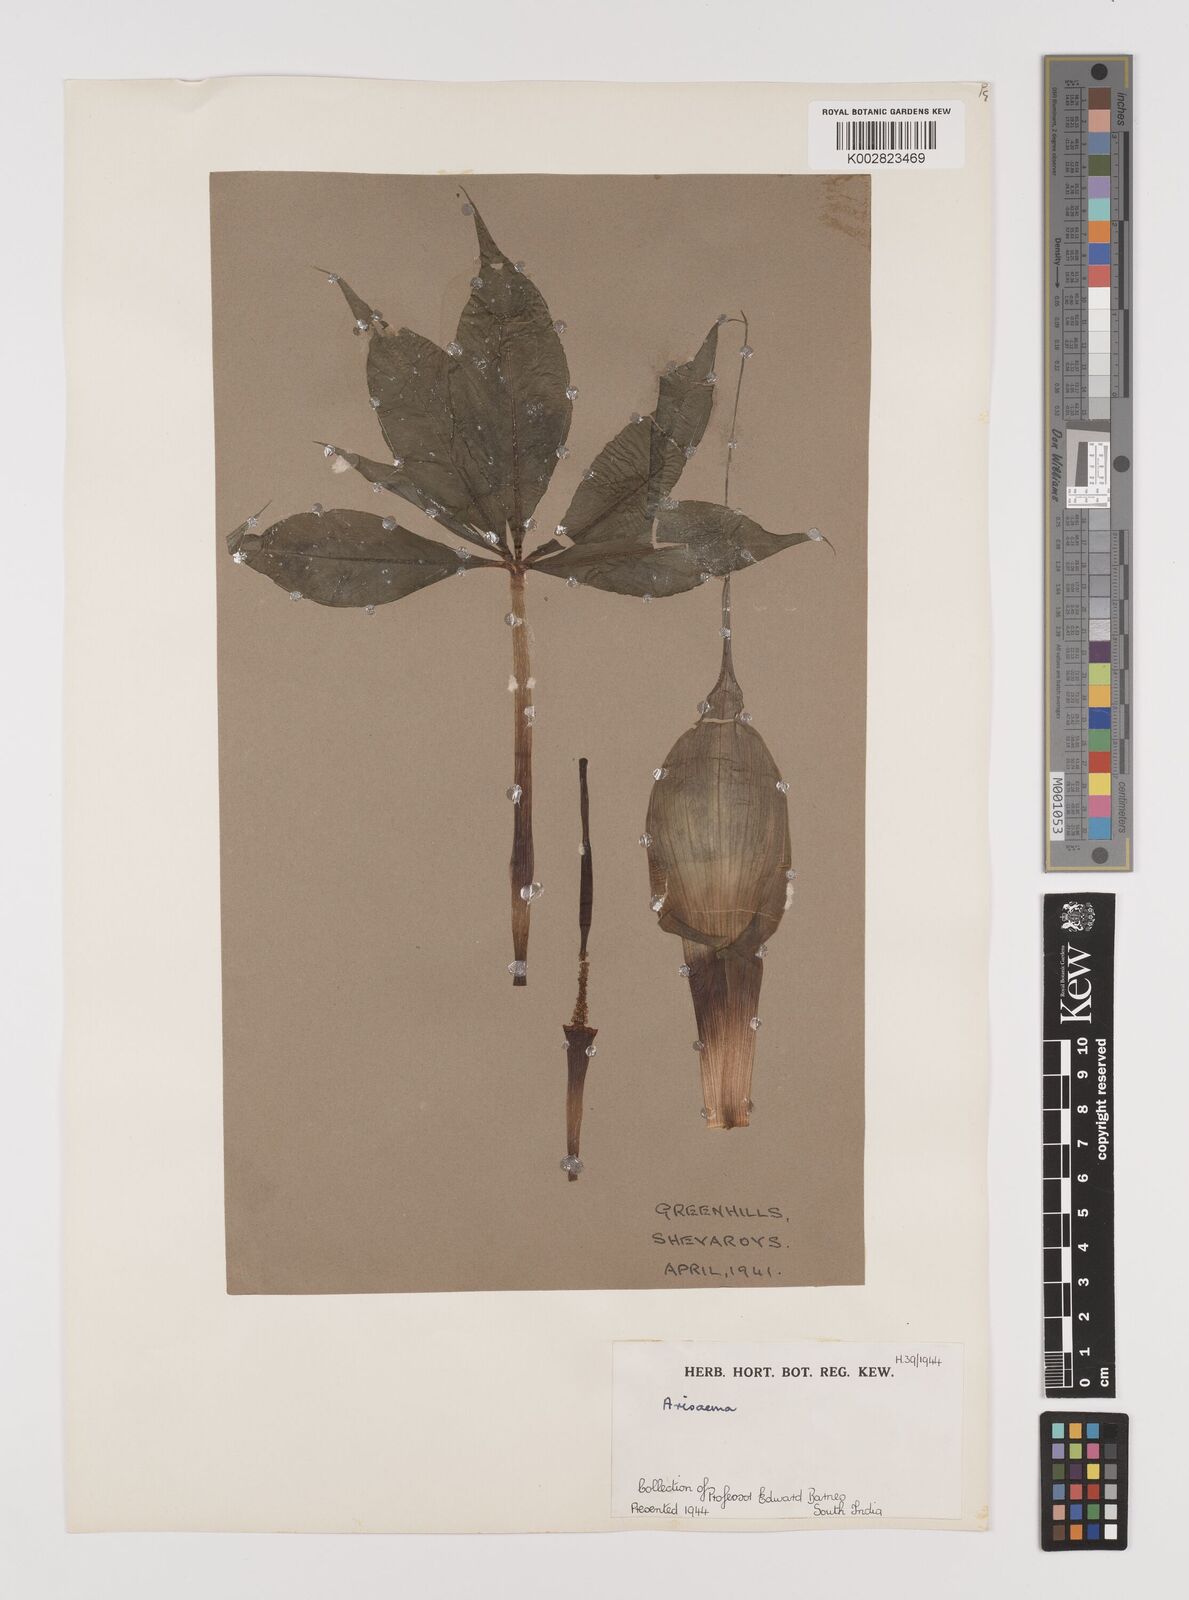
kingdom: Plantae
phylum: Tracheophyta
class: Liliopsida
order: Alismatales
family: Araceae
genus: Arisaema
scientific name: Arisaema
